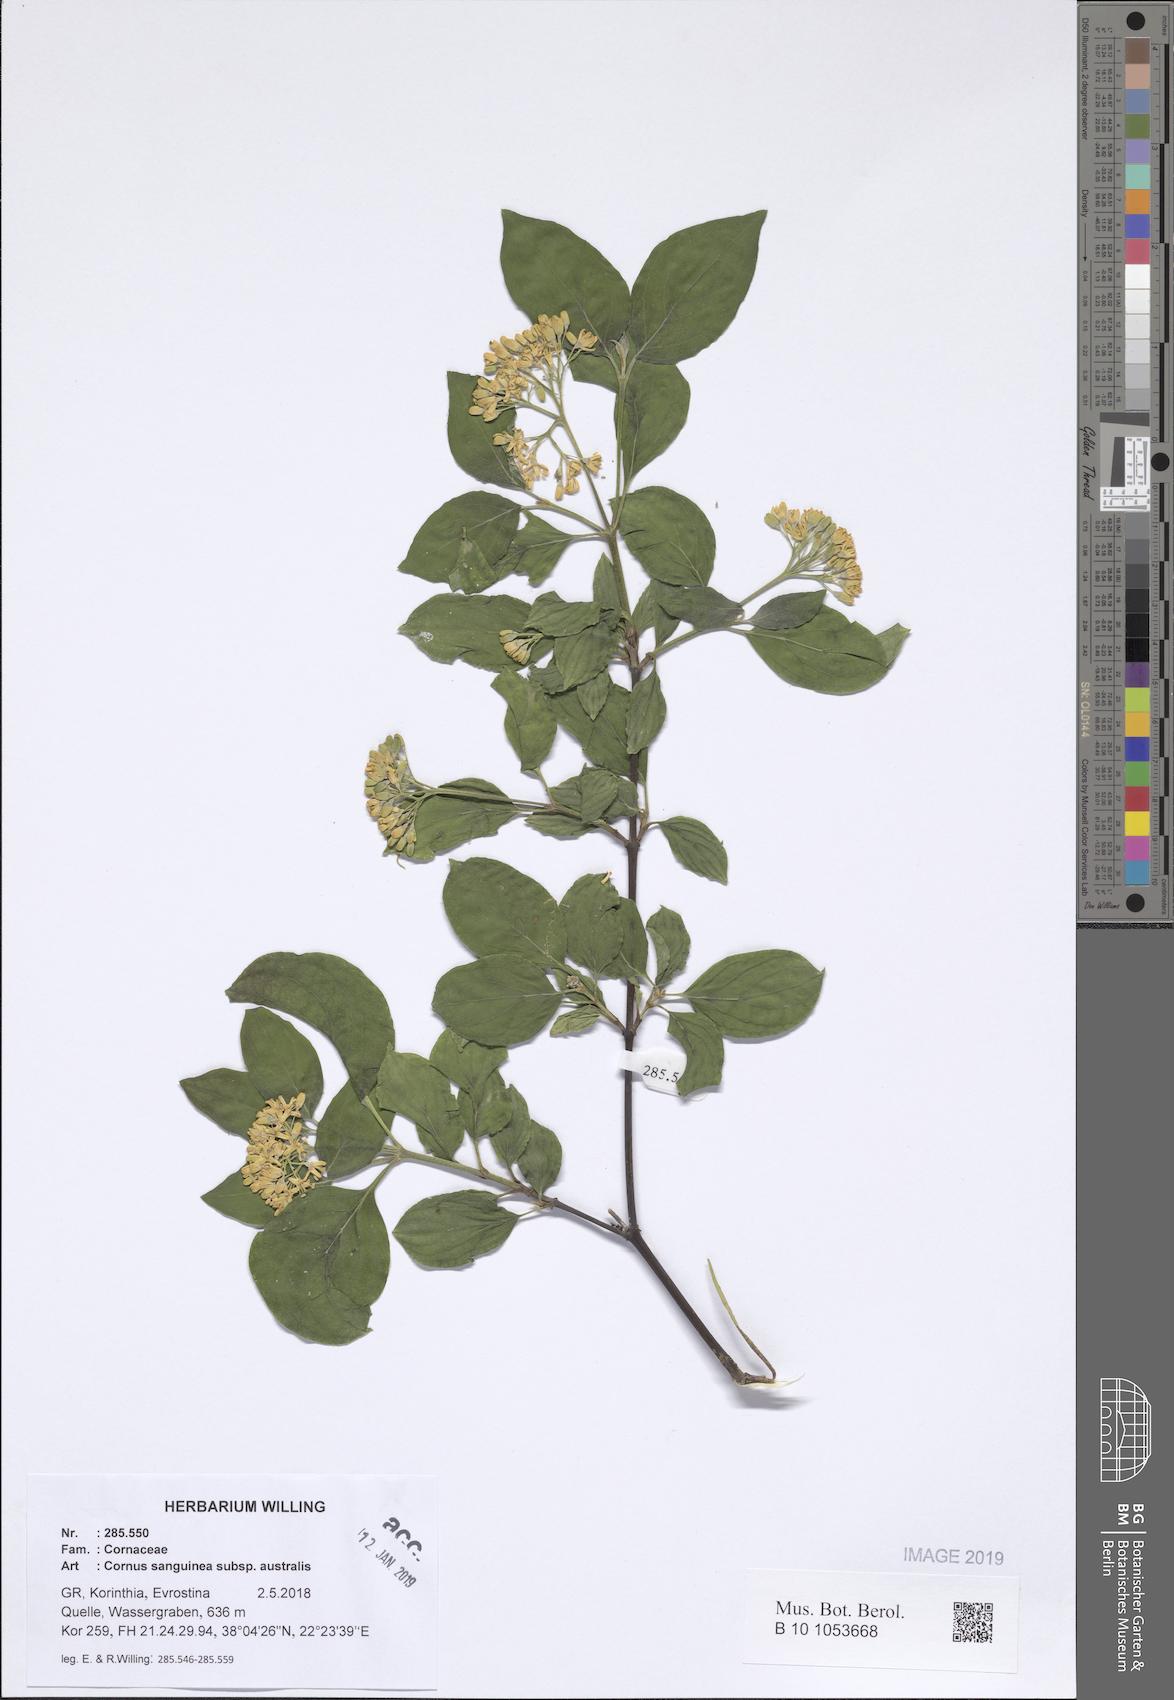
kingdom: Plantae
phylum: Tracheophyta
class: Magnoliopsida
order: Cornales
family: Cornaceae
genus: Cornus
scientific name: Cornus sanguinea
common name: Dogwood
